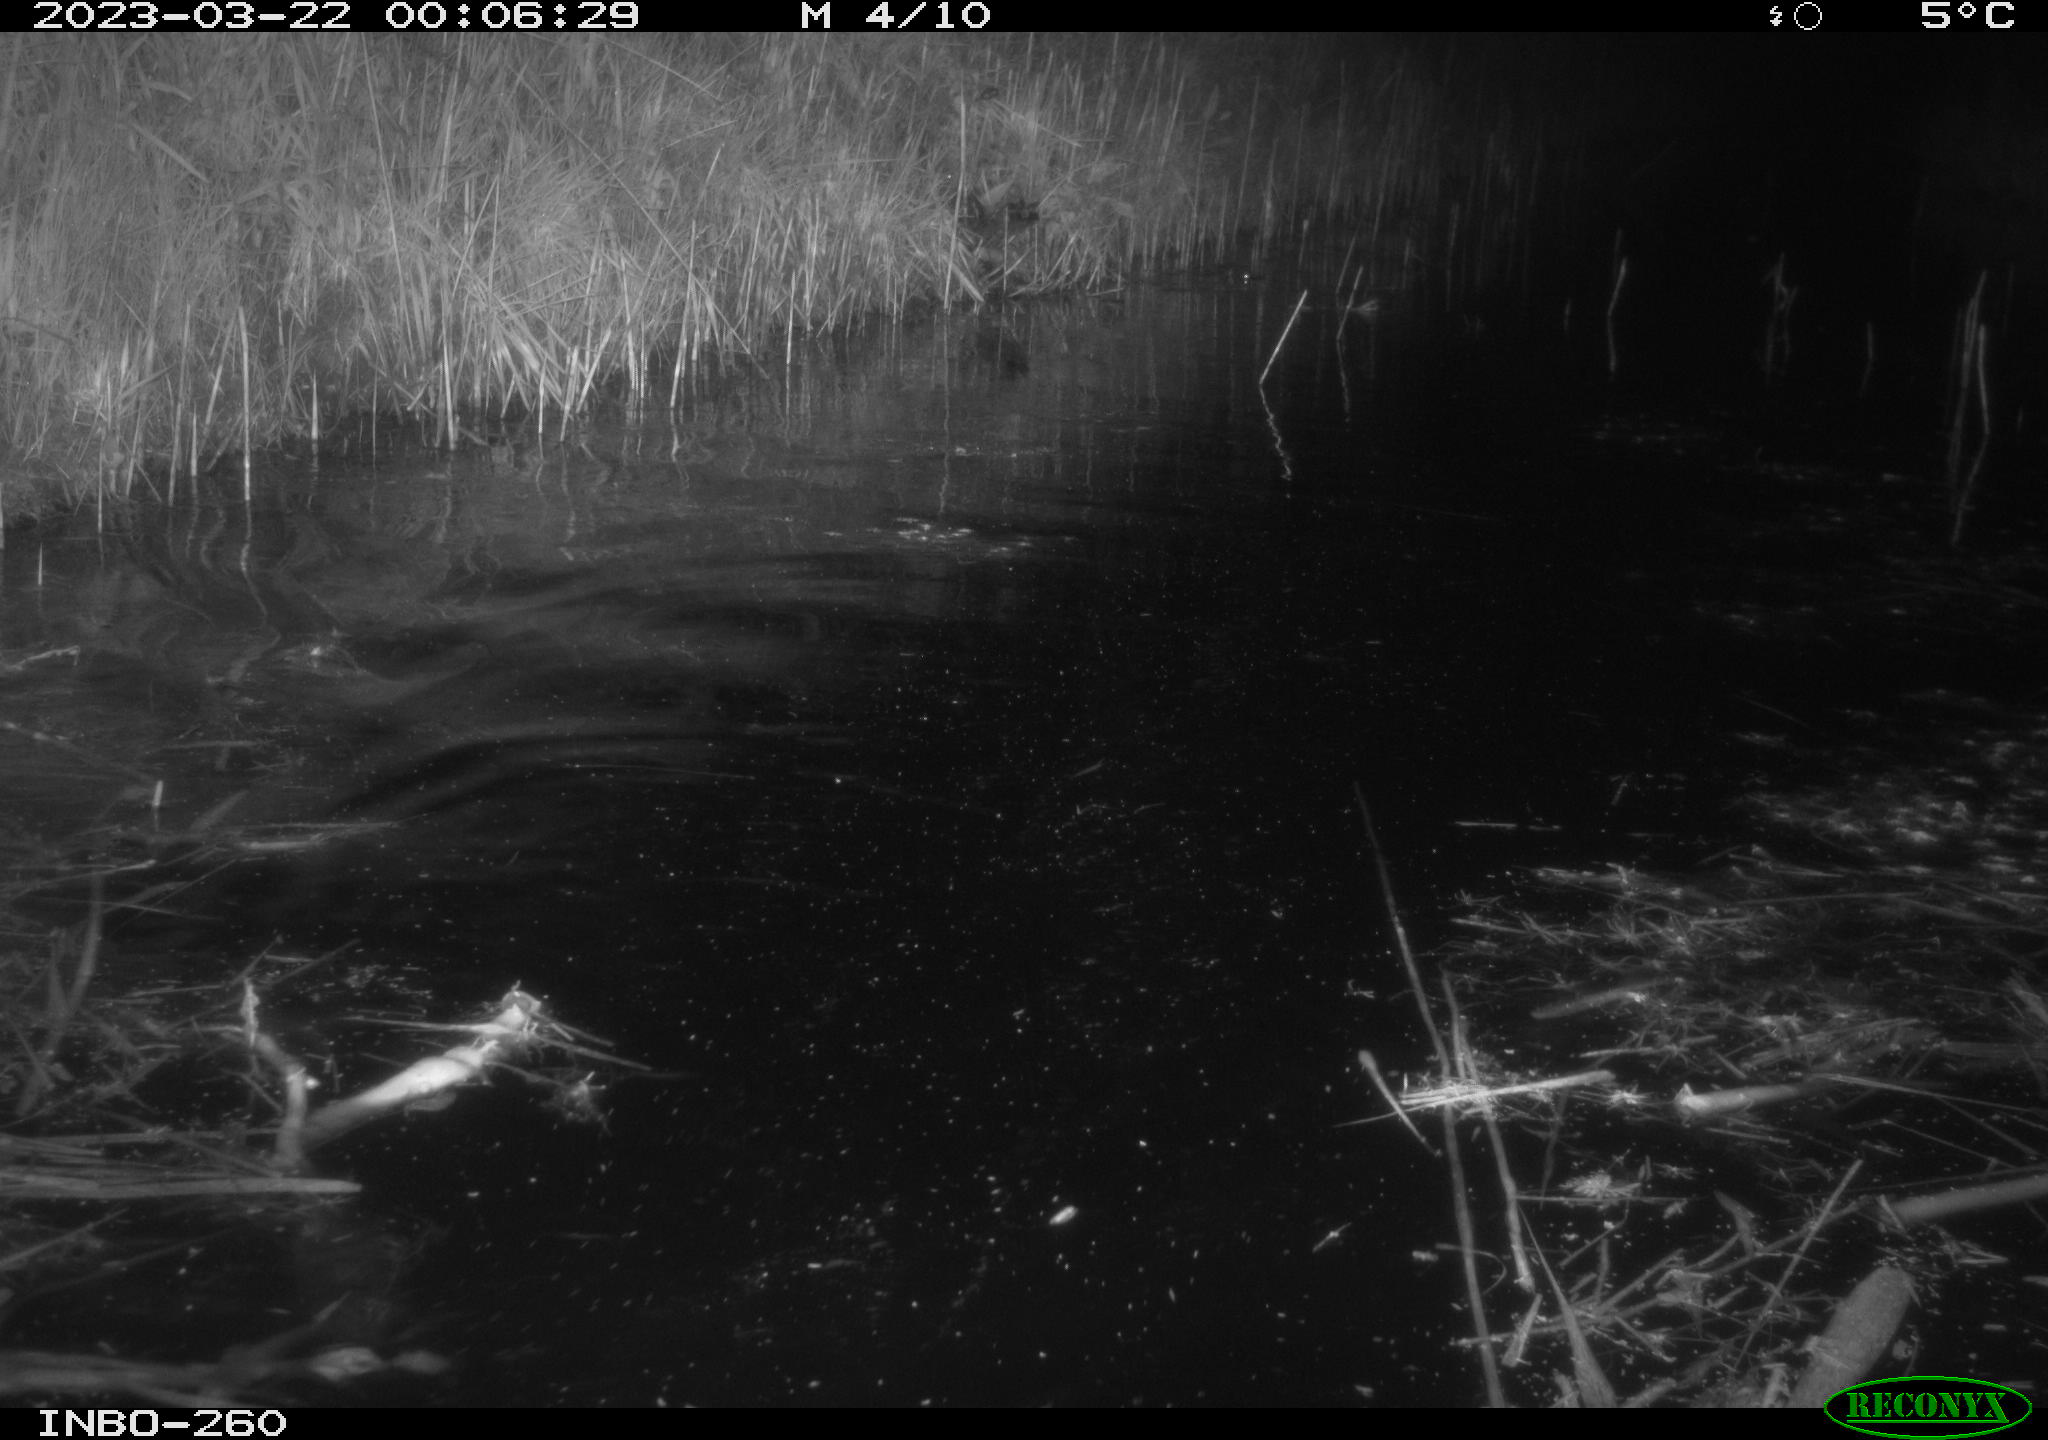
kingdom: Animalia
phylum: Chordata
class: Mammalia
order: Rodentia
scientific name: Rodentia
